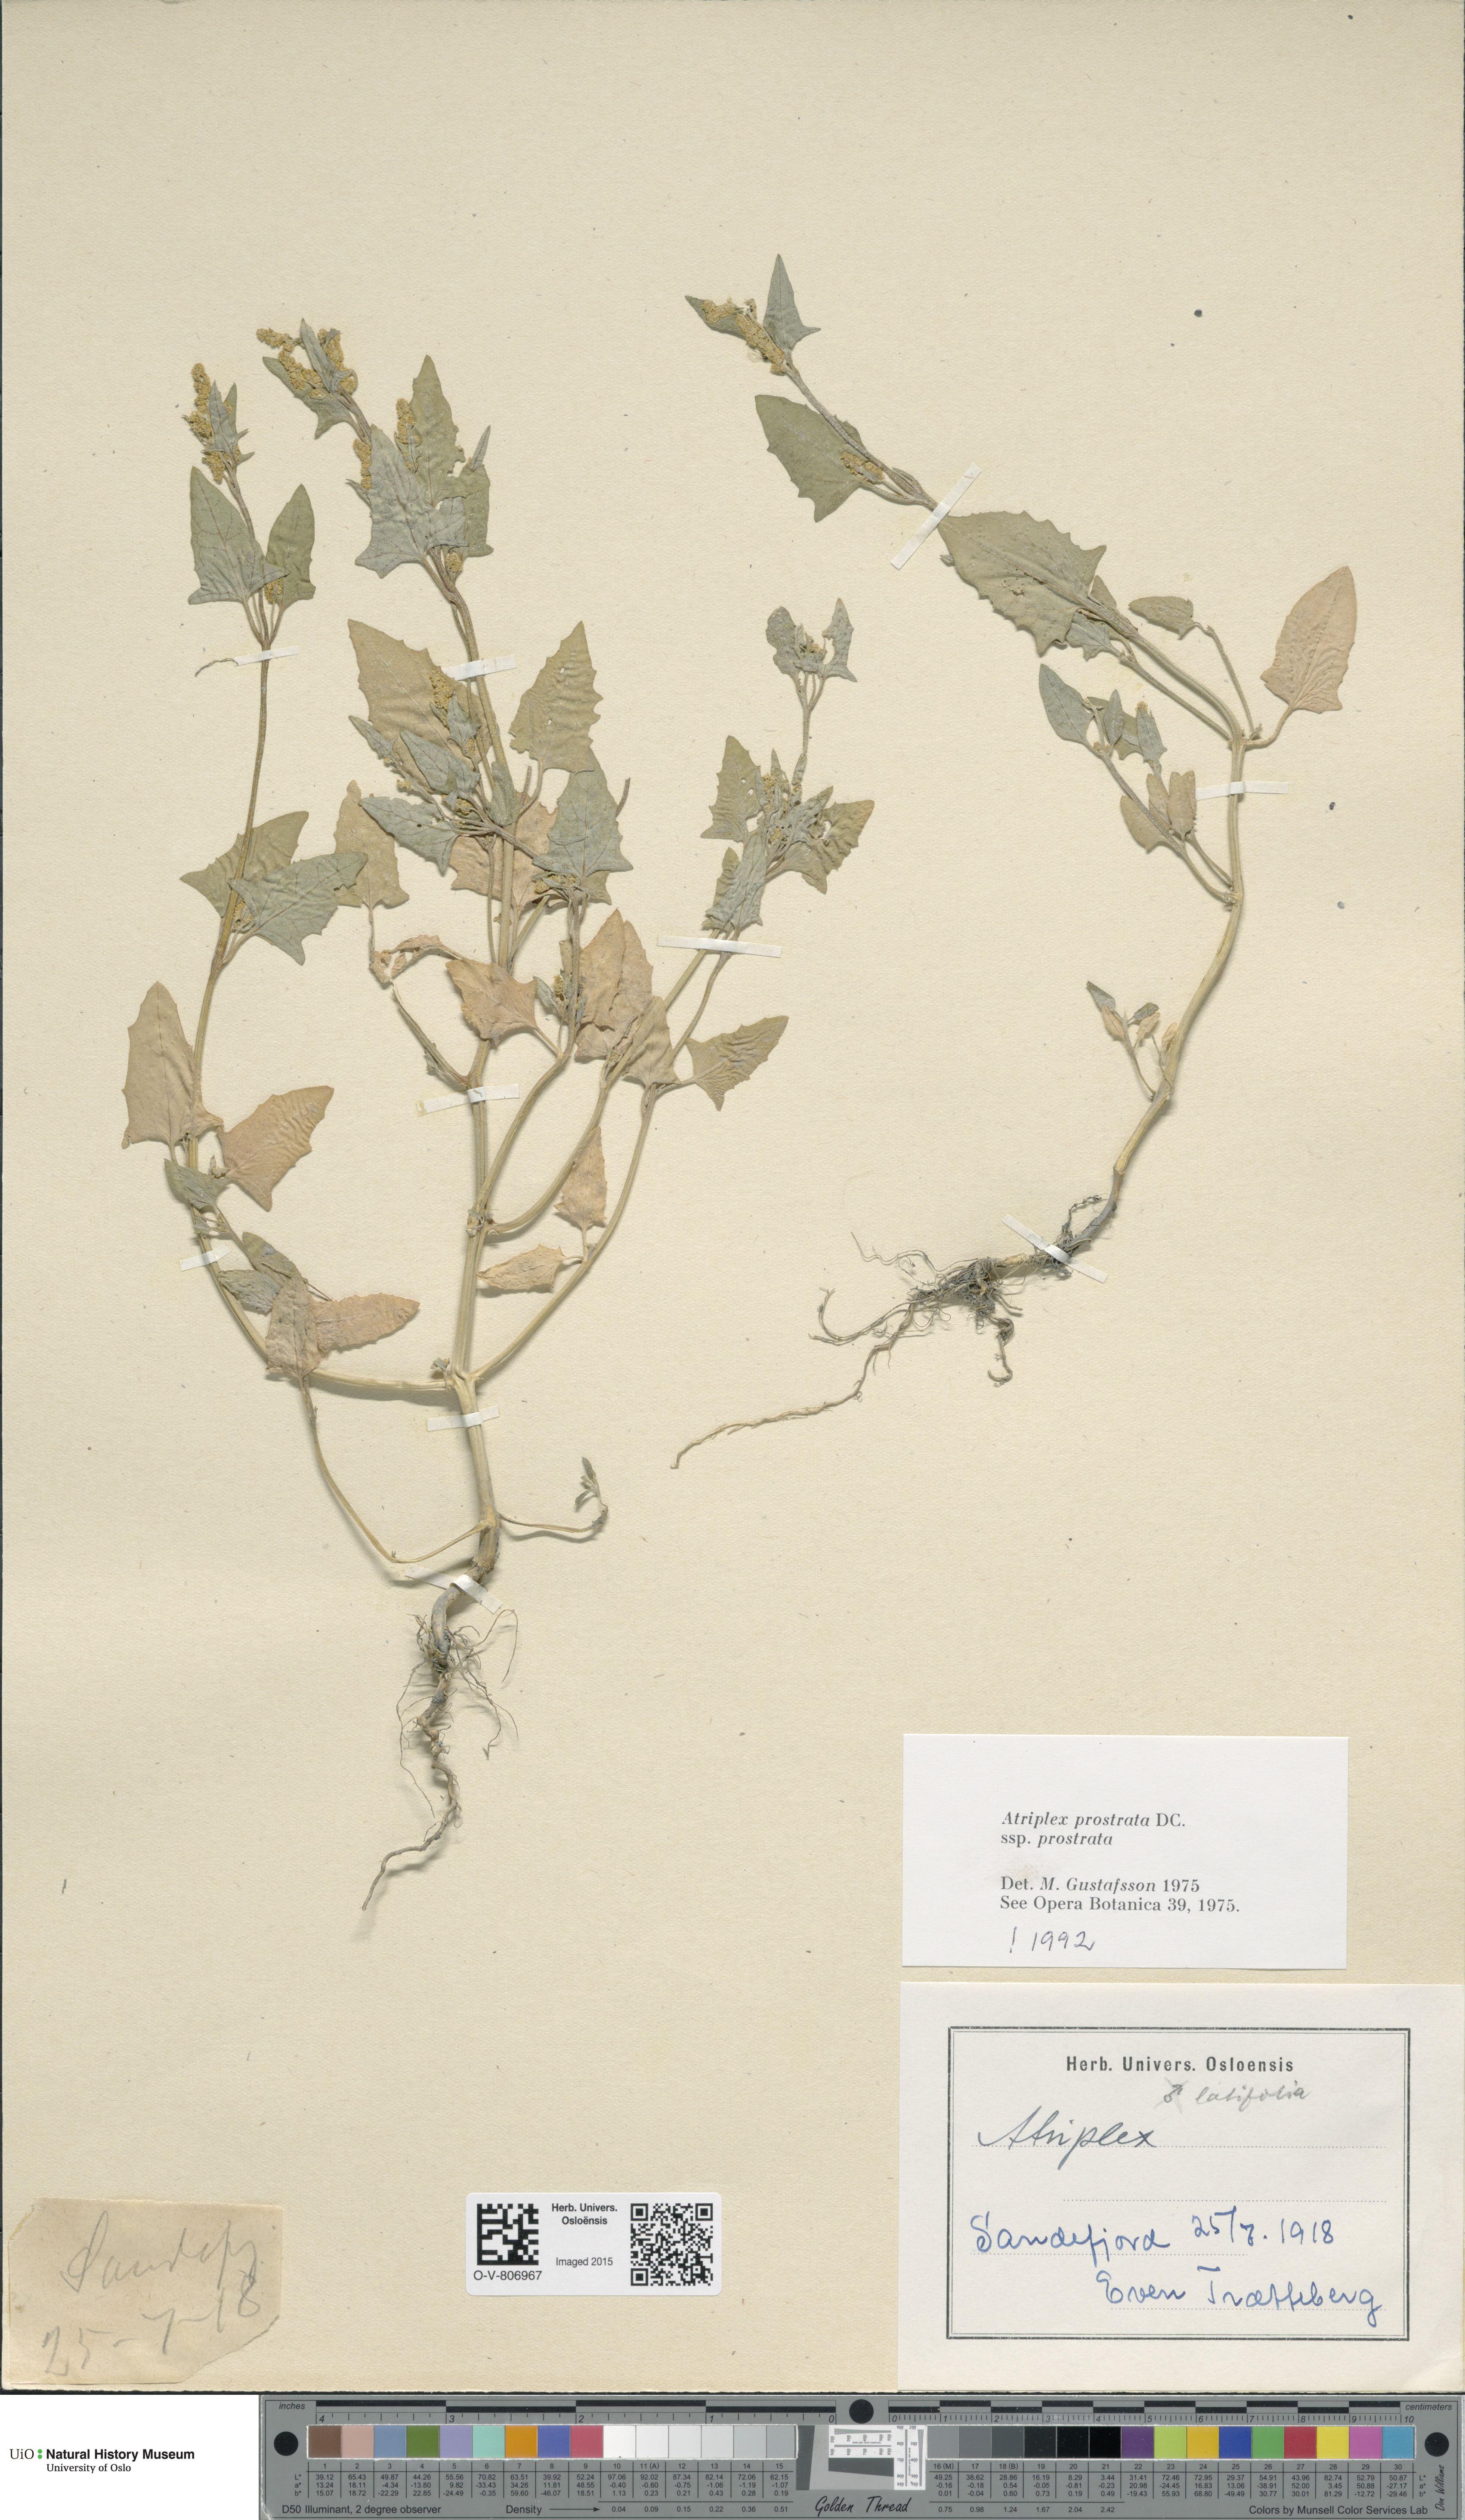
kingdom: Plantae
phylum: Tracheophyta
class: Magnoliopsida
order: Caryophyllales
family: Amaranthaceae
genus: Atriplex
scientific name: Atriplex prostrata
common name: Spear-leaved orache
